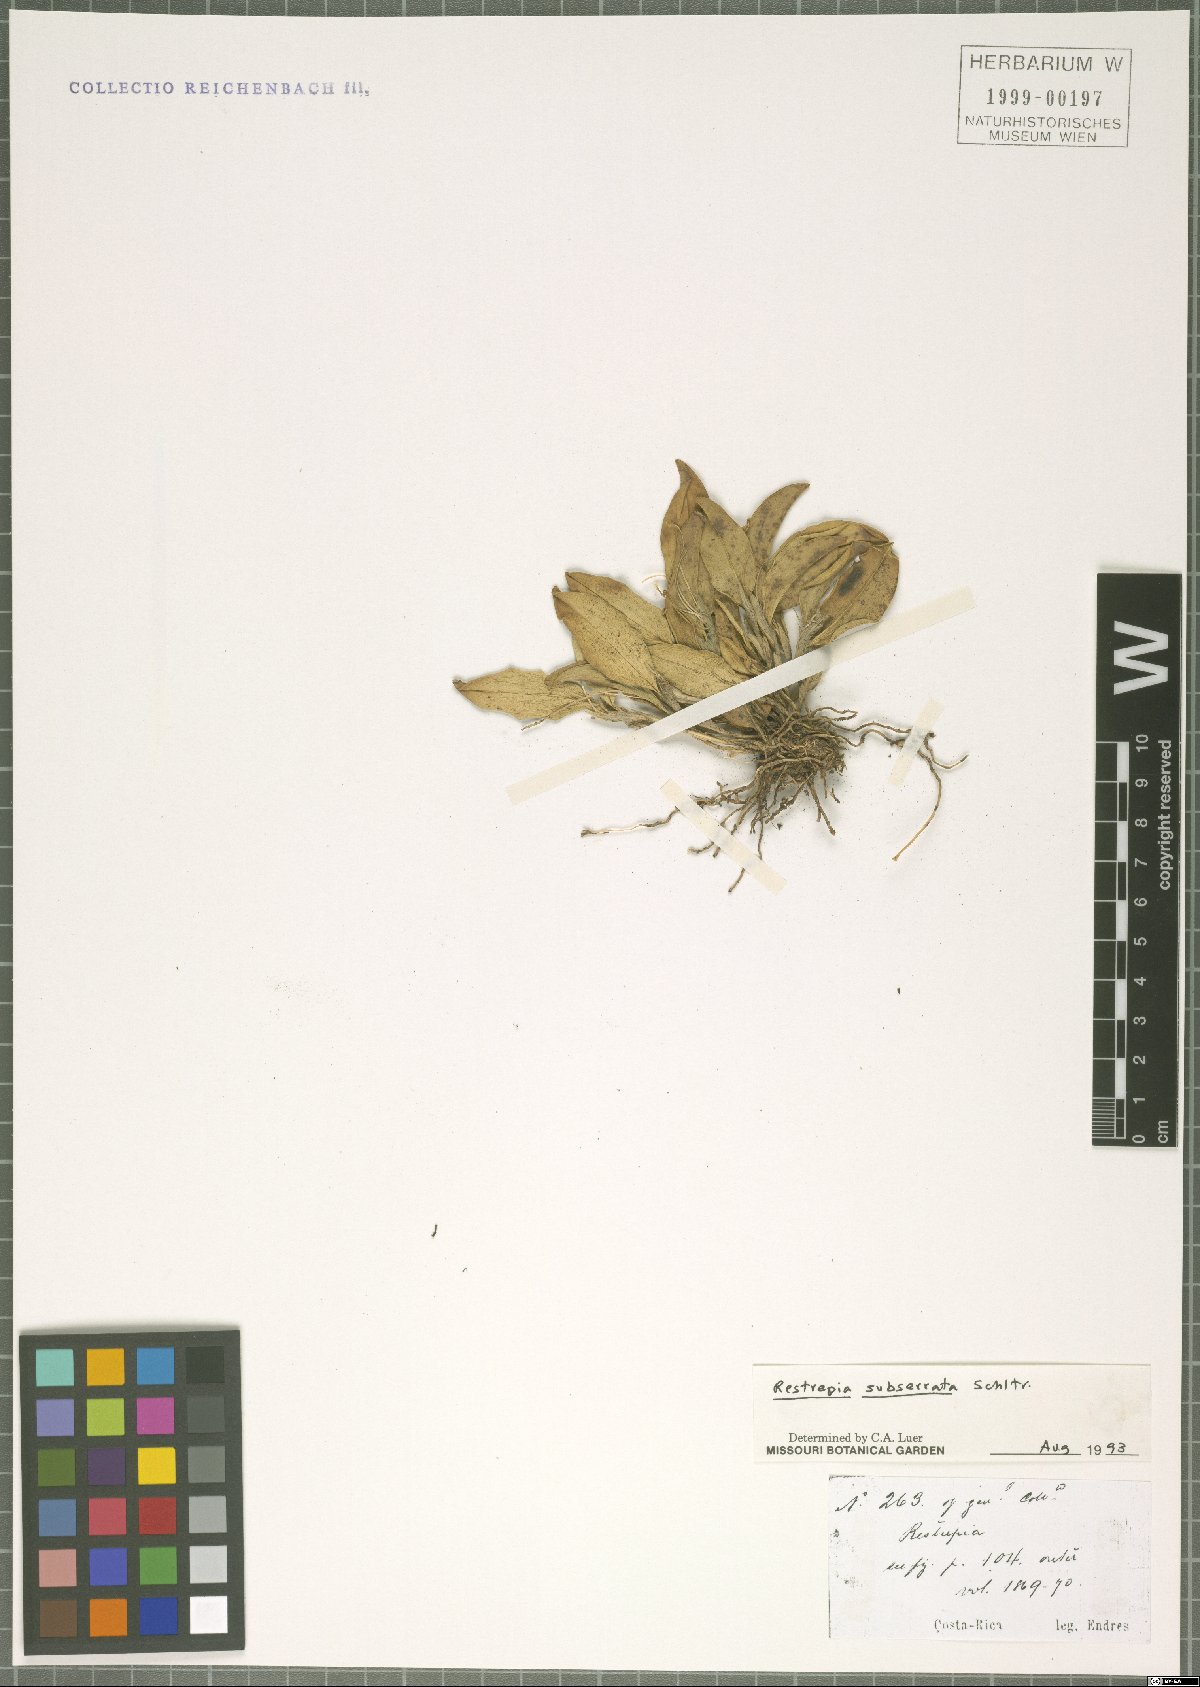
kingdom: Plantae
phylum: Tracheophyta
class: Liliopsida
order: Asparagales
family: Orchidaceae
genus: Restrepia
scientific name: Restrepia trichoglossa
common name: Hairy tongued restrepia
